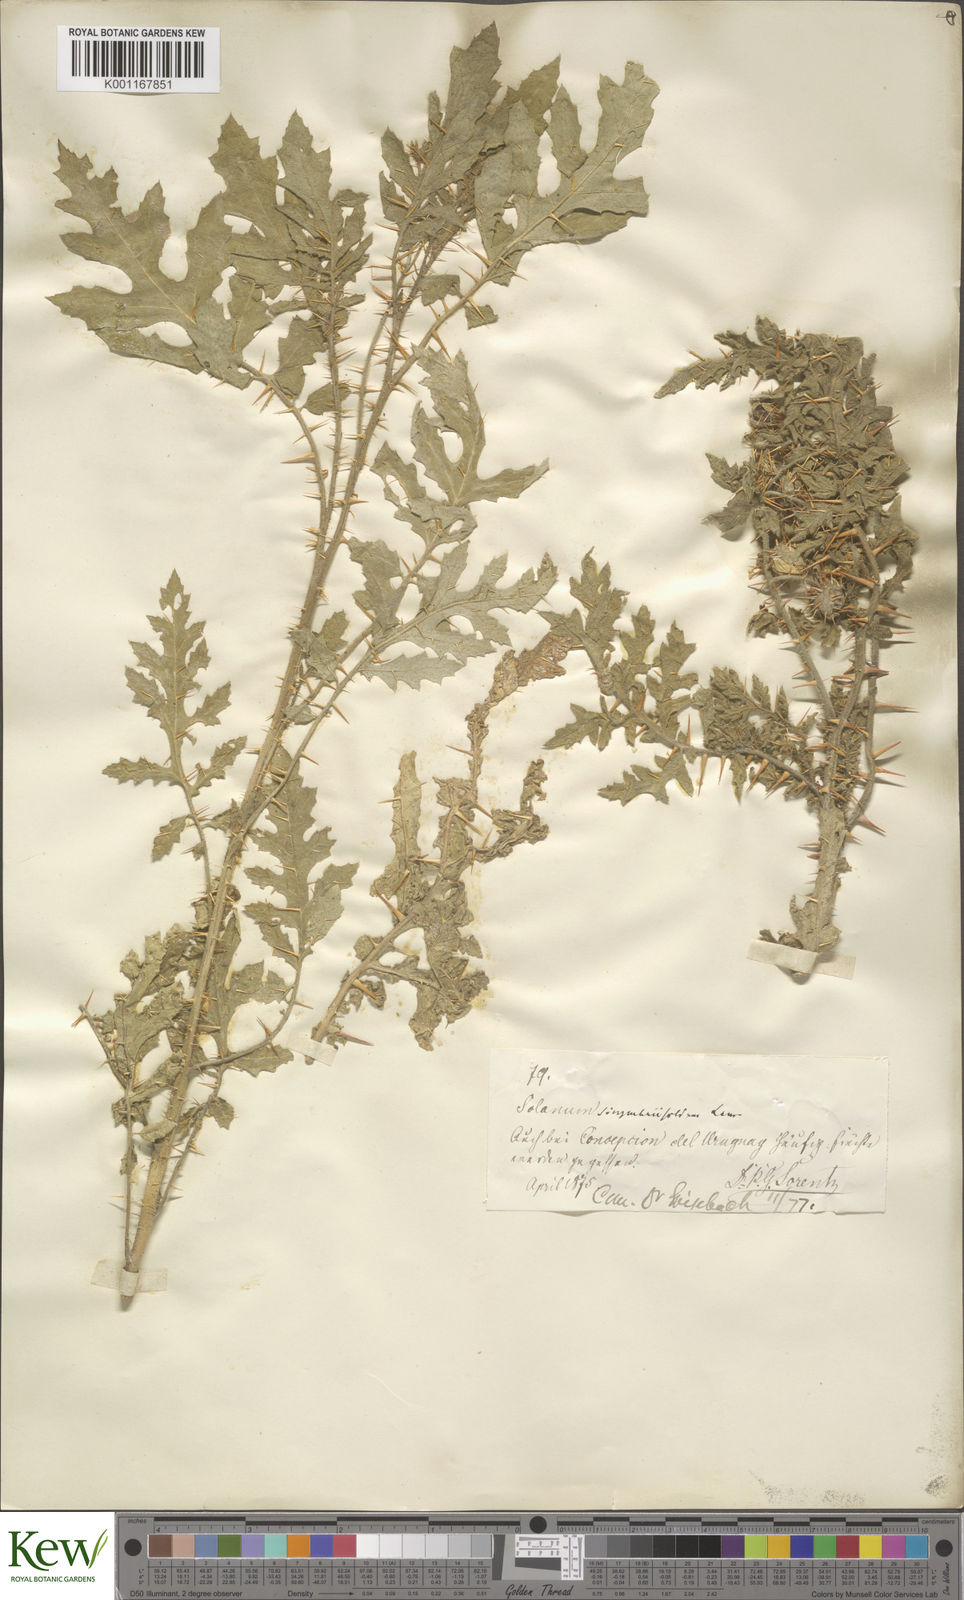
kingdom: Plantae
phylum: Tracheophyta
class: Magnoliopsida
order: Solanales
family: Solanaceae
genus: Solanum
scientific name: Solanum sisymbriifolium
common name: Red buffalo-bur
